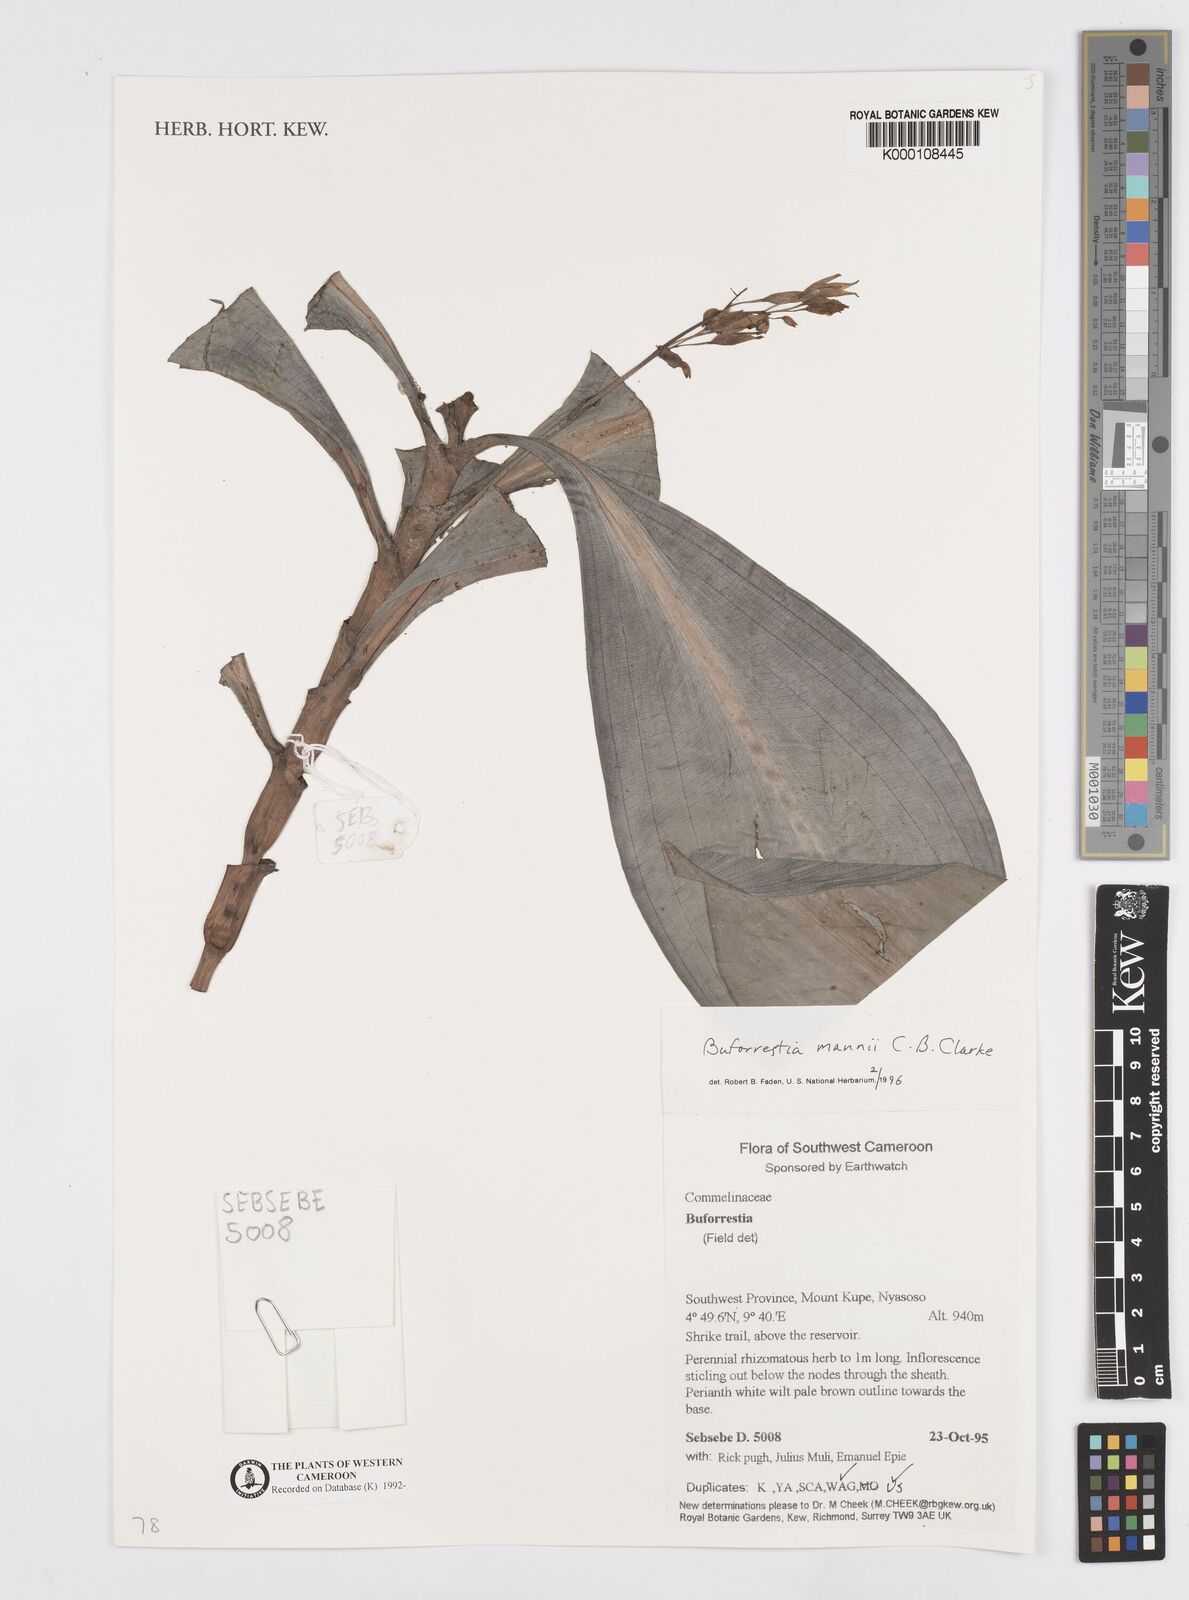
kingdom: Plantae
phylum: Tracheophyta
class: Liliopsida
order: Commelinales
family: Commelinaceae
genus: Buforrestia
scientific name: Buforrestia mannii
